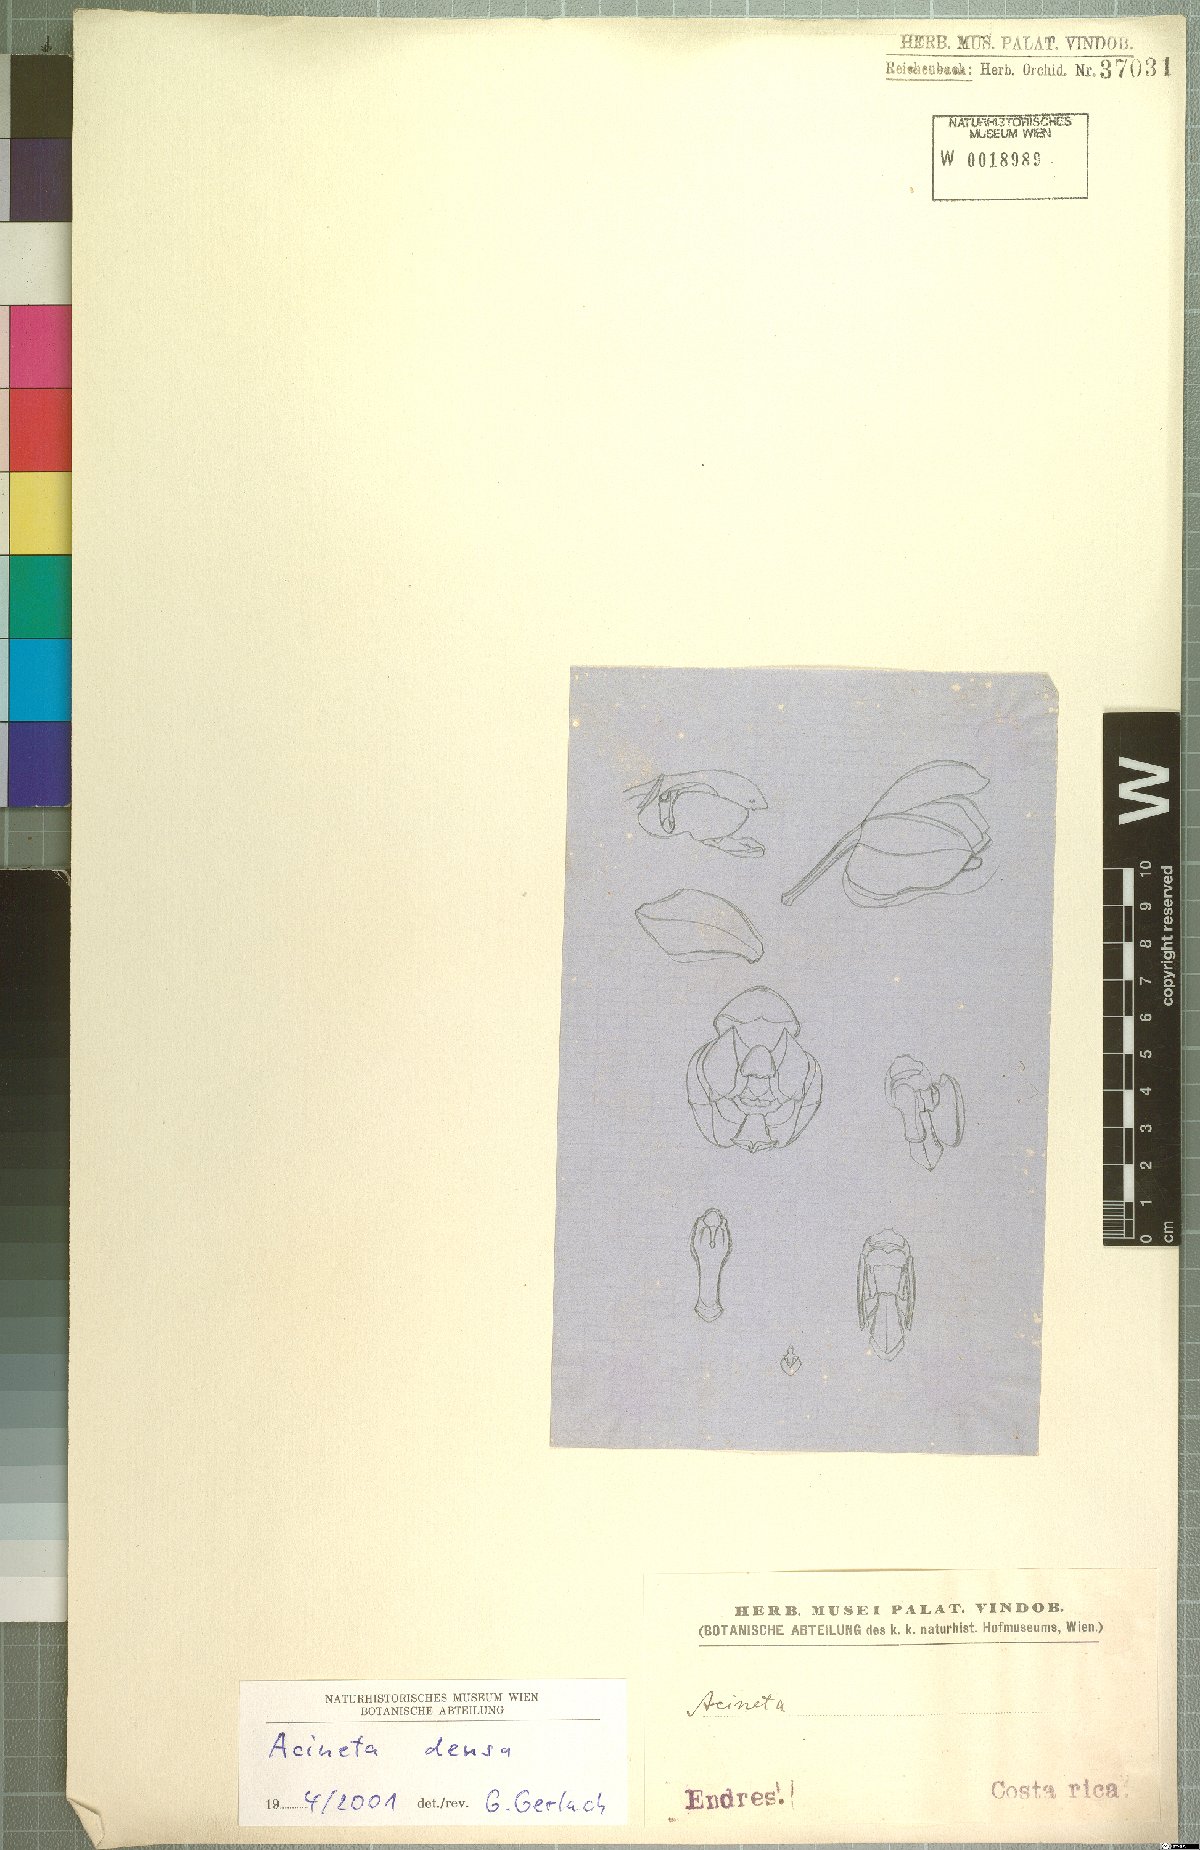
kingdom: Plantae
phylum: Tracheophyta
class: Liliopsida
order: Asparagales
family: Orchidaceae
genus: Acineta
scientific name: Acineta densa
